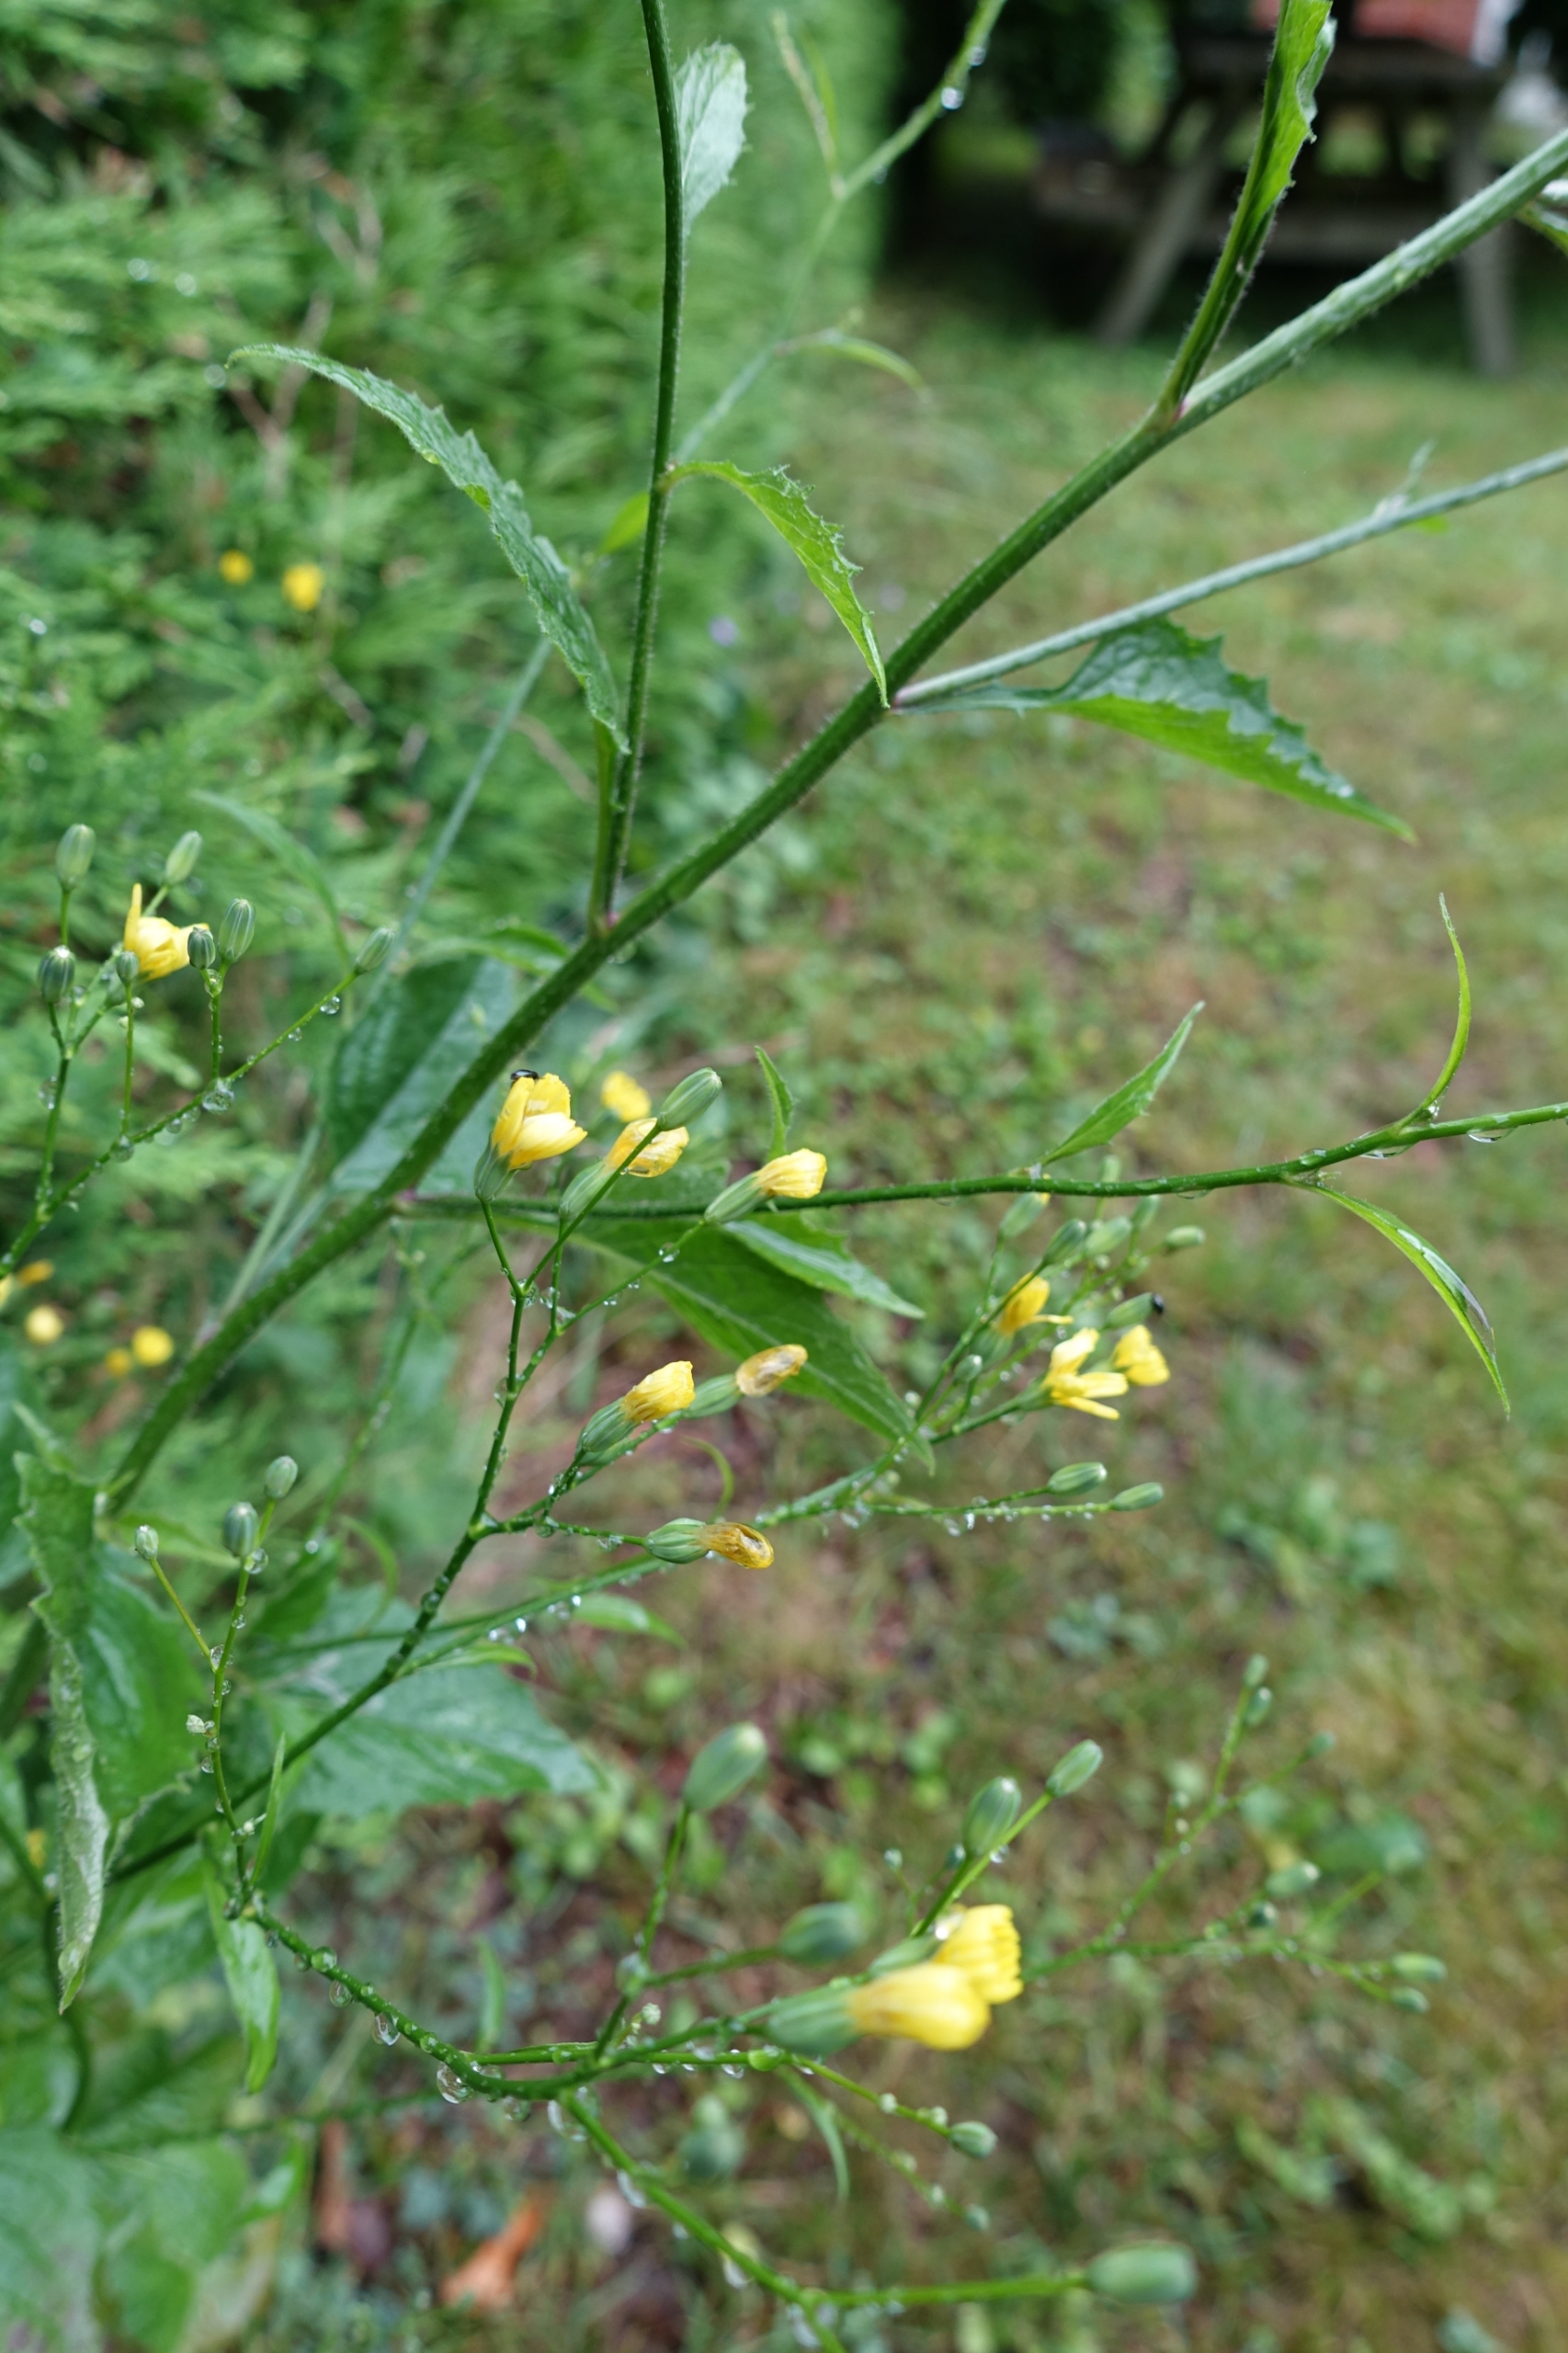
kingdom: Plantae
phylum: Tracheophyta
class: Magnoliopsida
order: Asterales
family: Asteraceae
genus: Lapsana
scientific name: Lapsana communis
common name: Haremad
